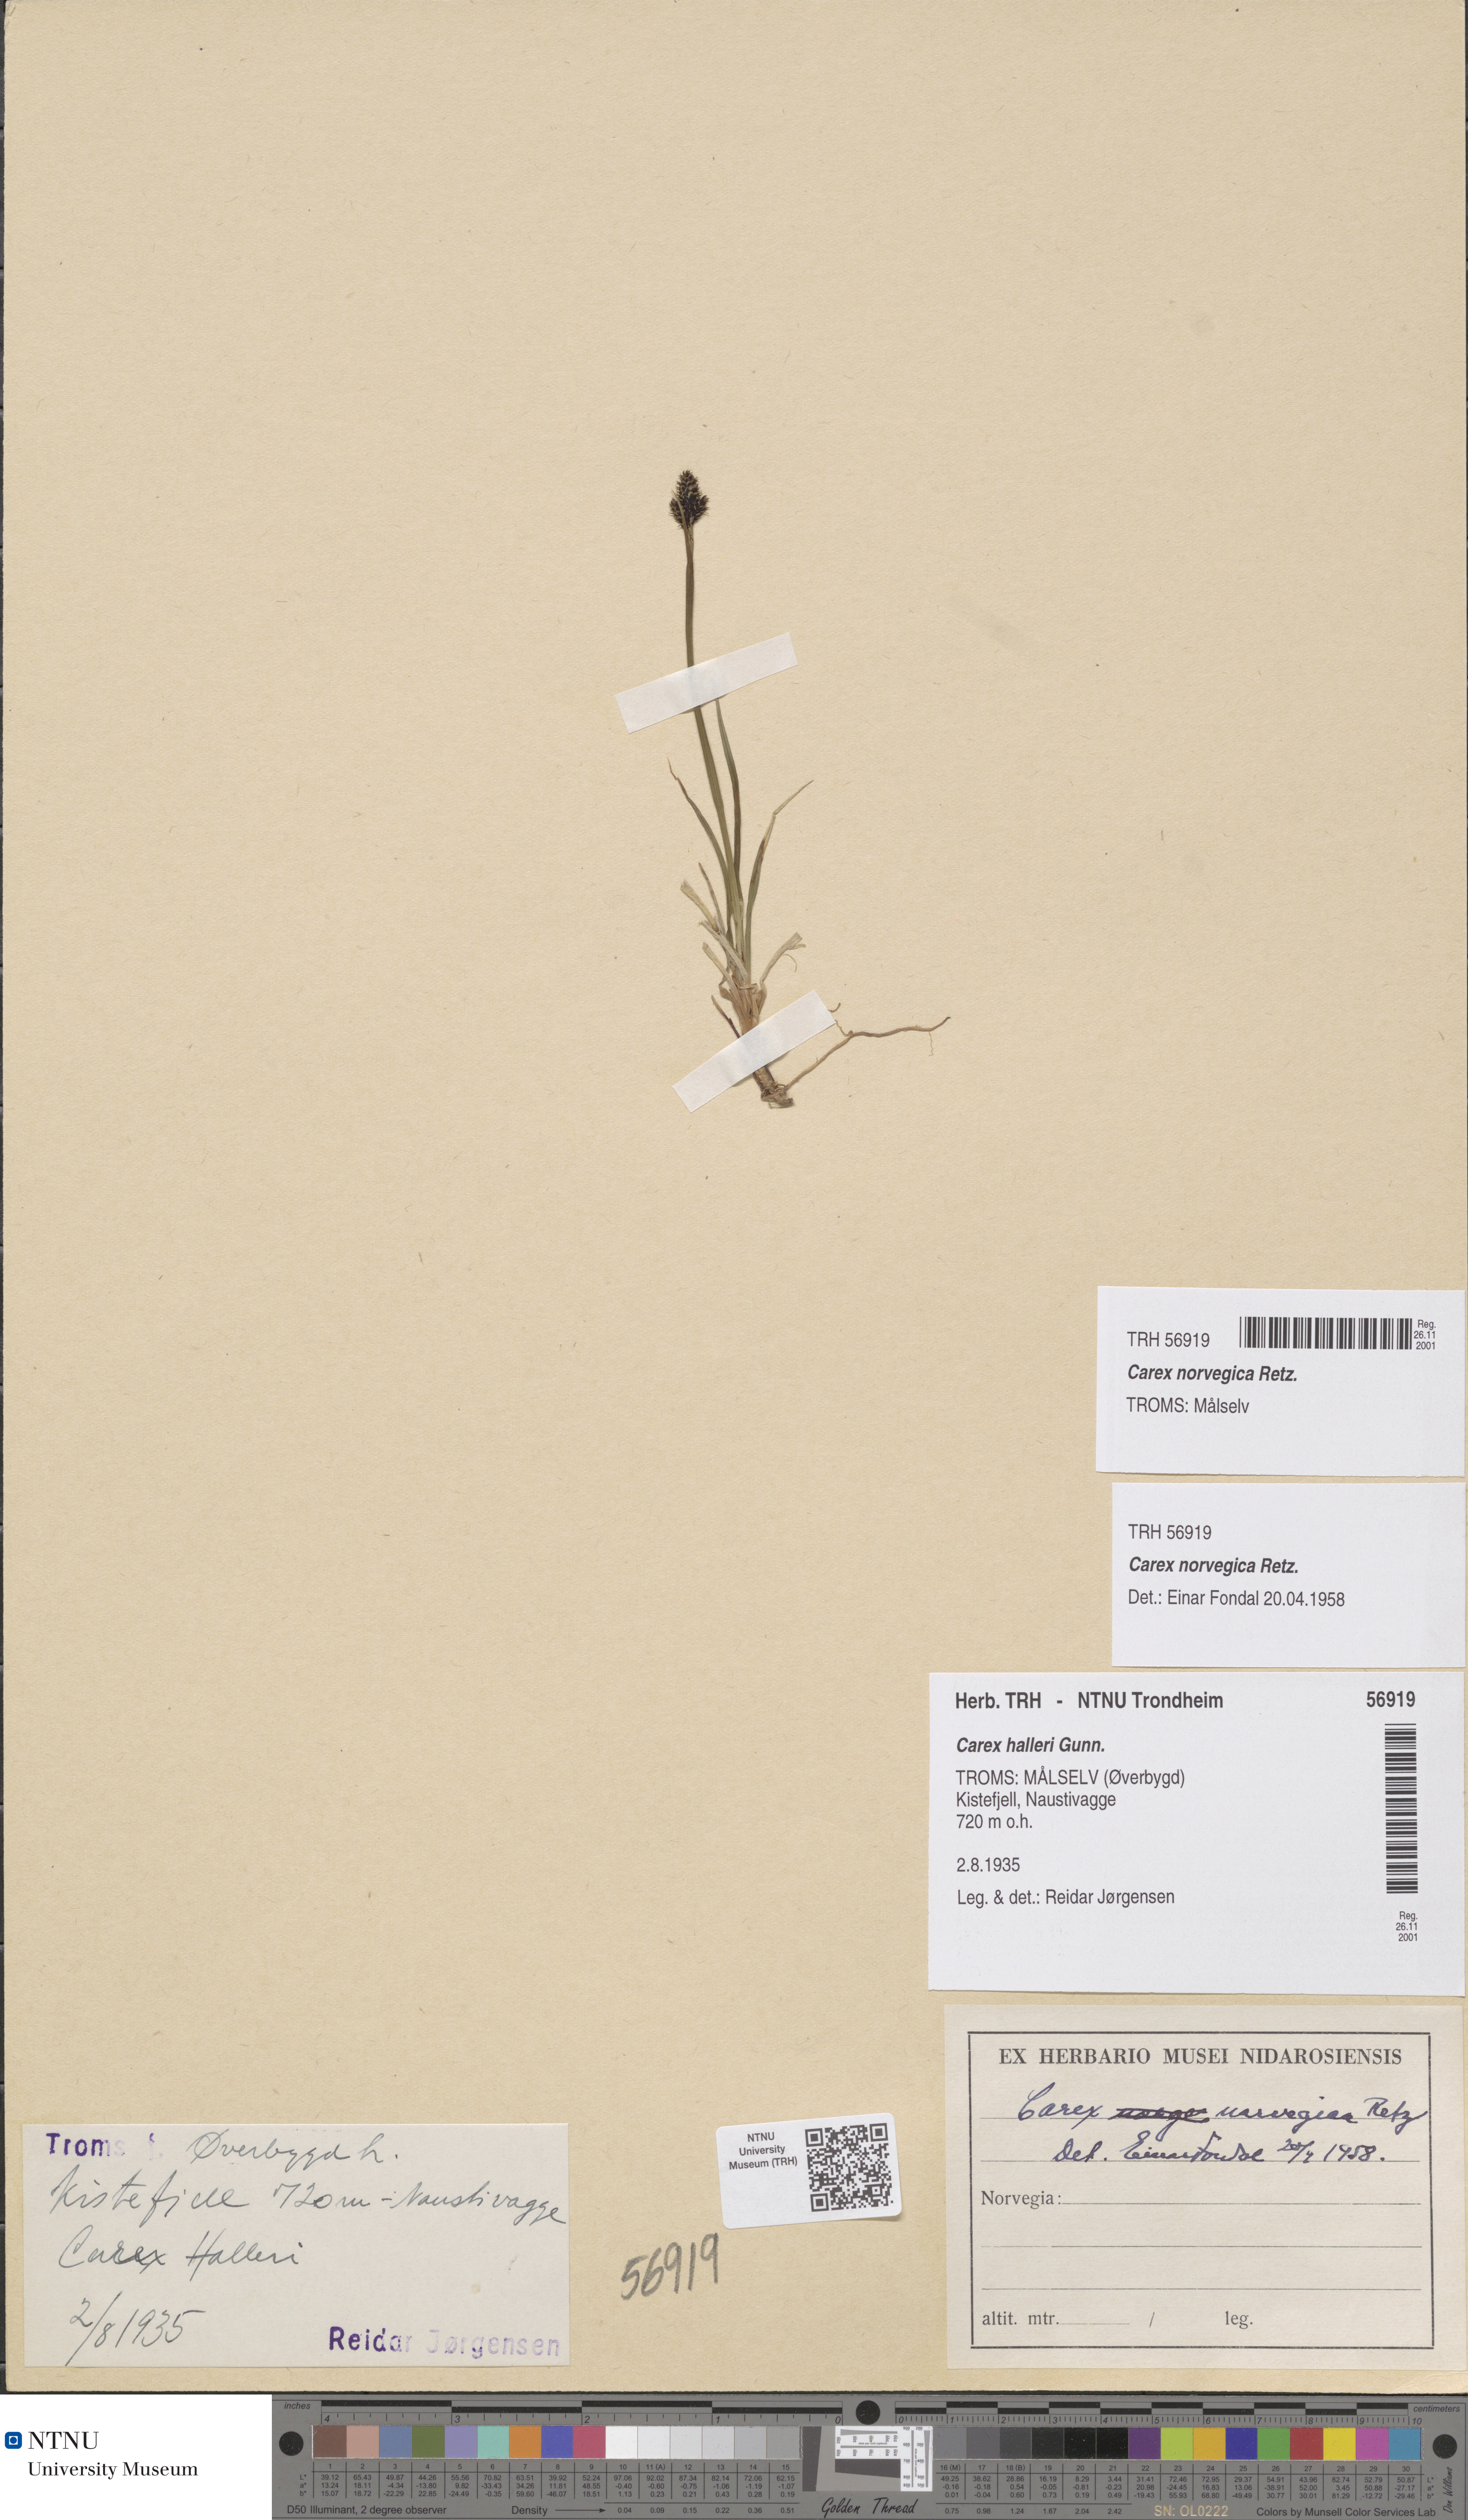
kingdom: Plantae
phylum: Tracheophyta
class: Liliopsida
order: Poales
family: Cyperaceae
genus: Carex
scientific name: Carex norvegica
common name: Close-headed alpine-sedge
